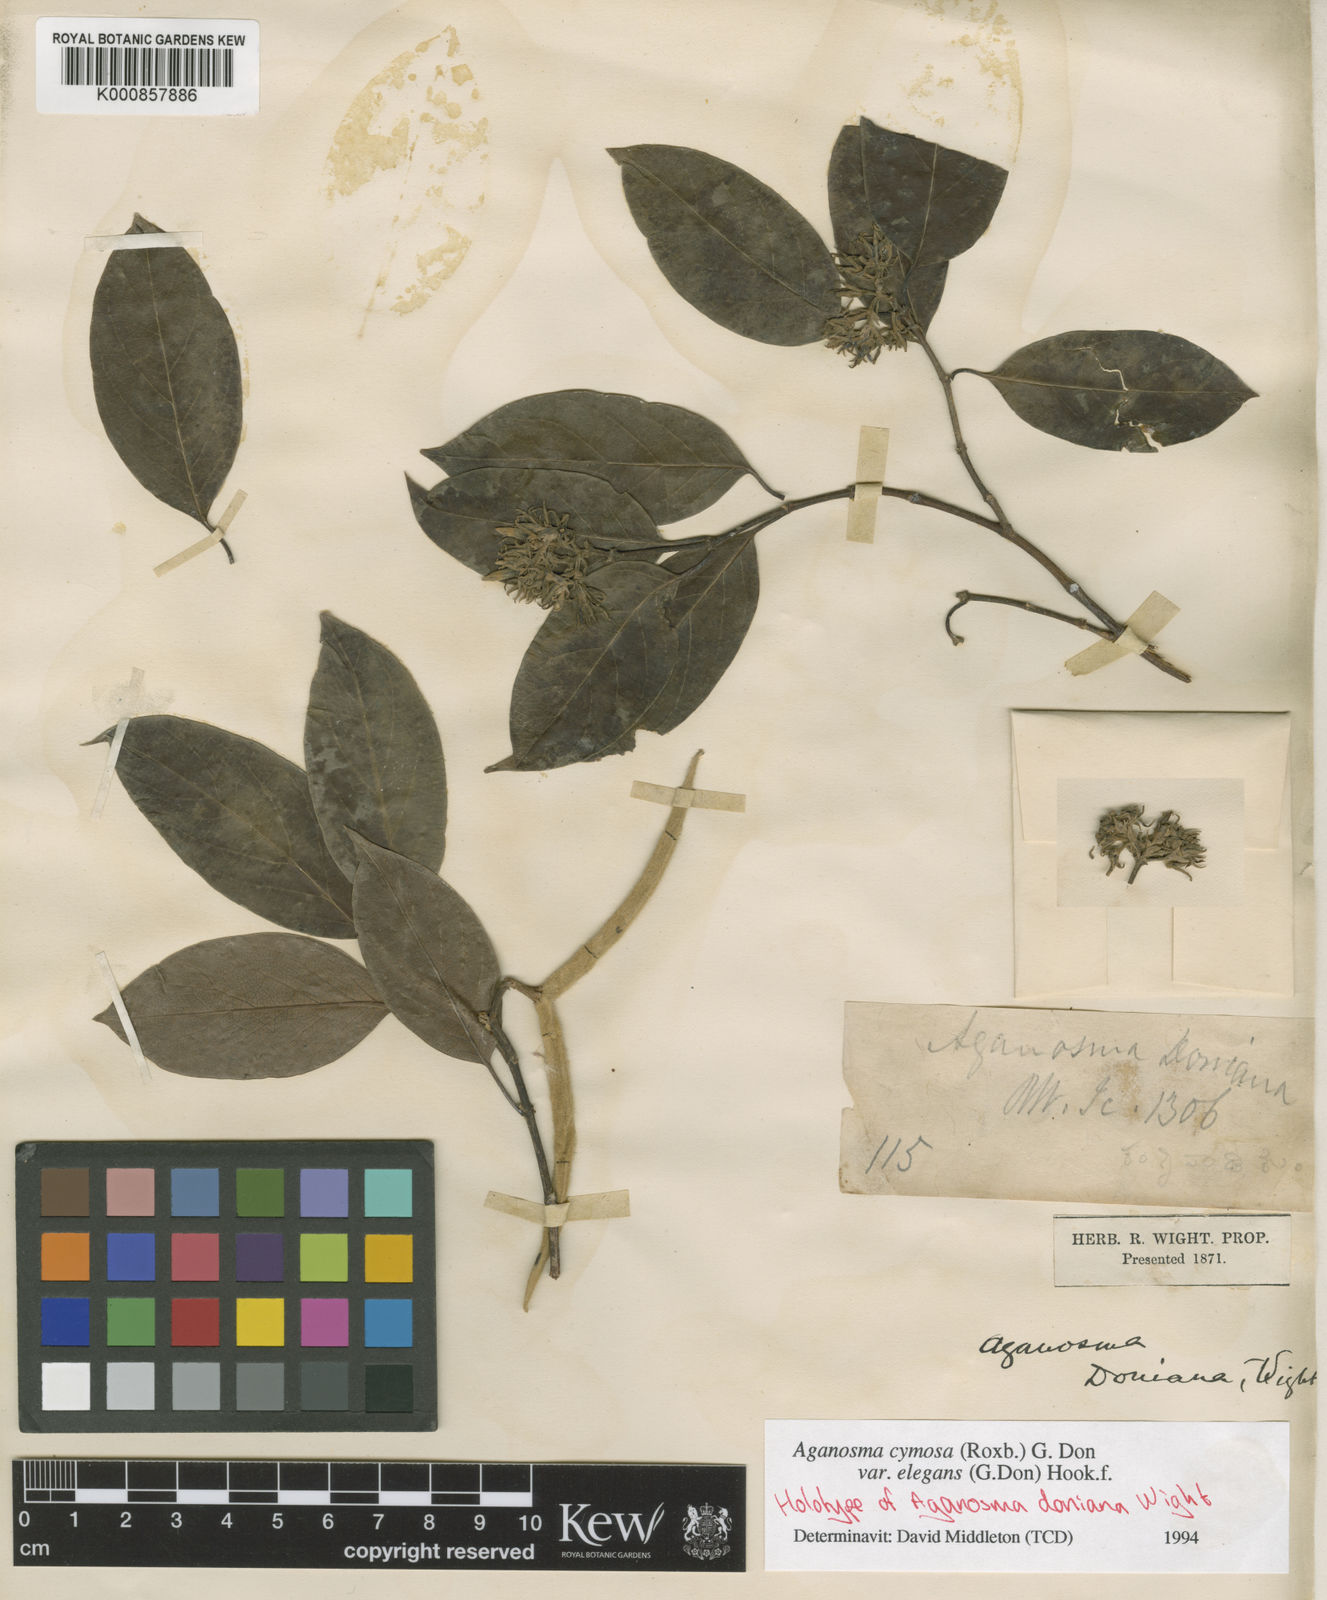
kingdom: Plantae
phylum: Tracheophyta
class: Magnoliopsida
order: Gentianales
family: Apocynaceae
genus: Aganosma
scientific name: Aganosma cymosa
